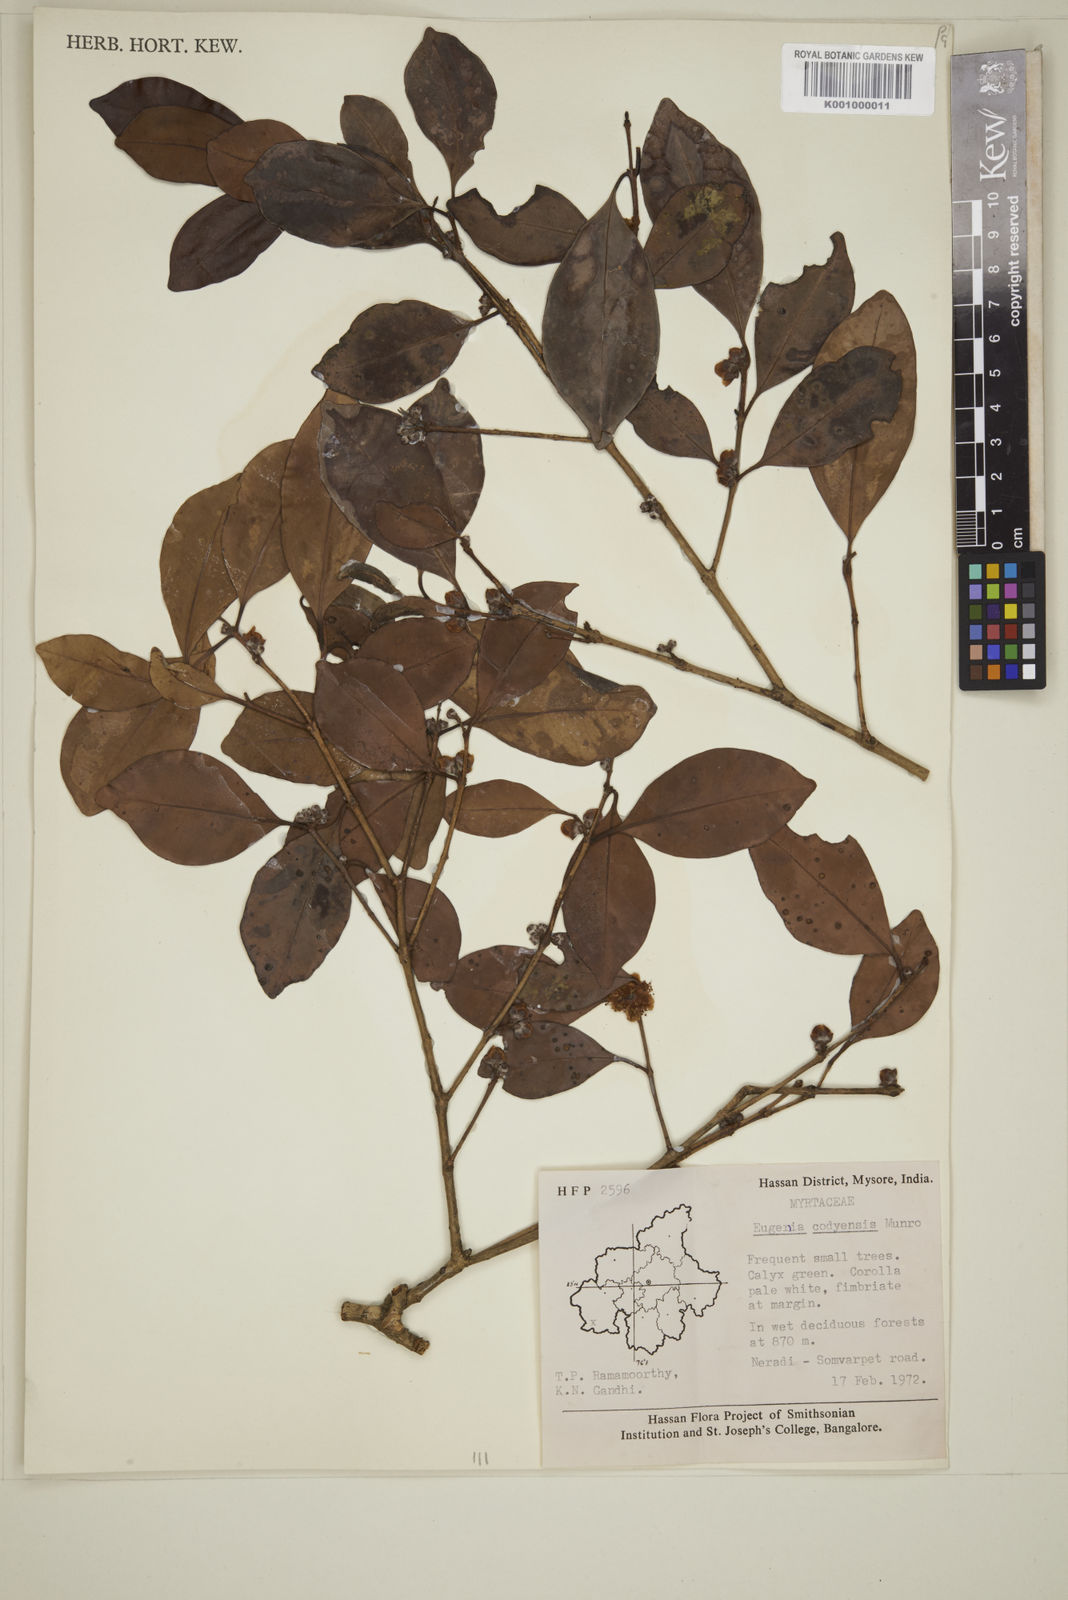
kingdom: Plantae
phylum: Tracheophyta
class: Magnoliopsida
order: Myrtales
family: Myrtaceae
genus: Eugenia
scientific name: Eugenia codyensis
